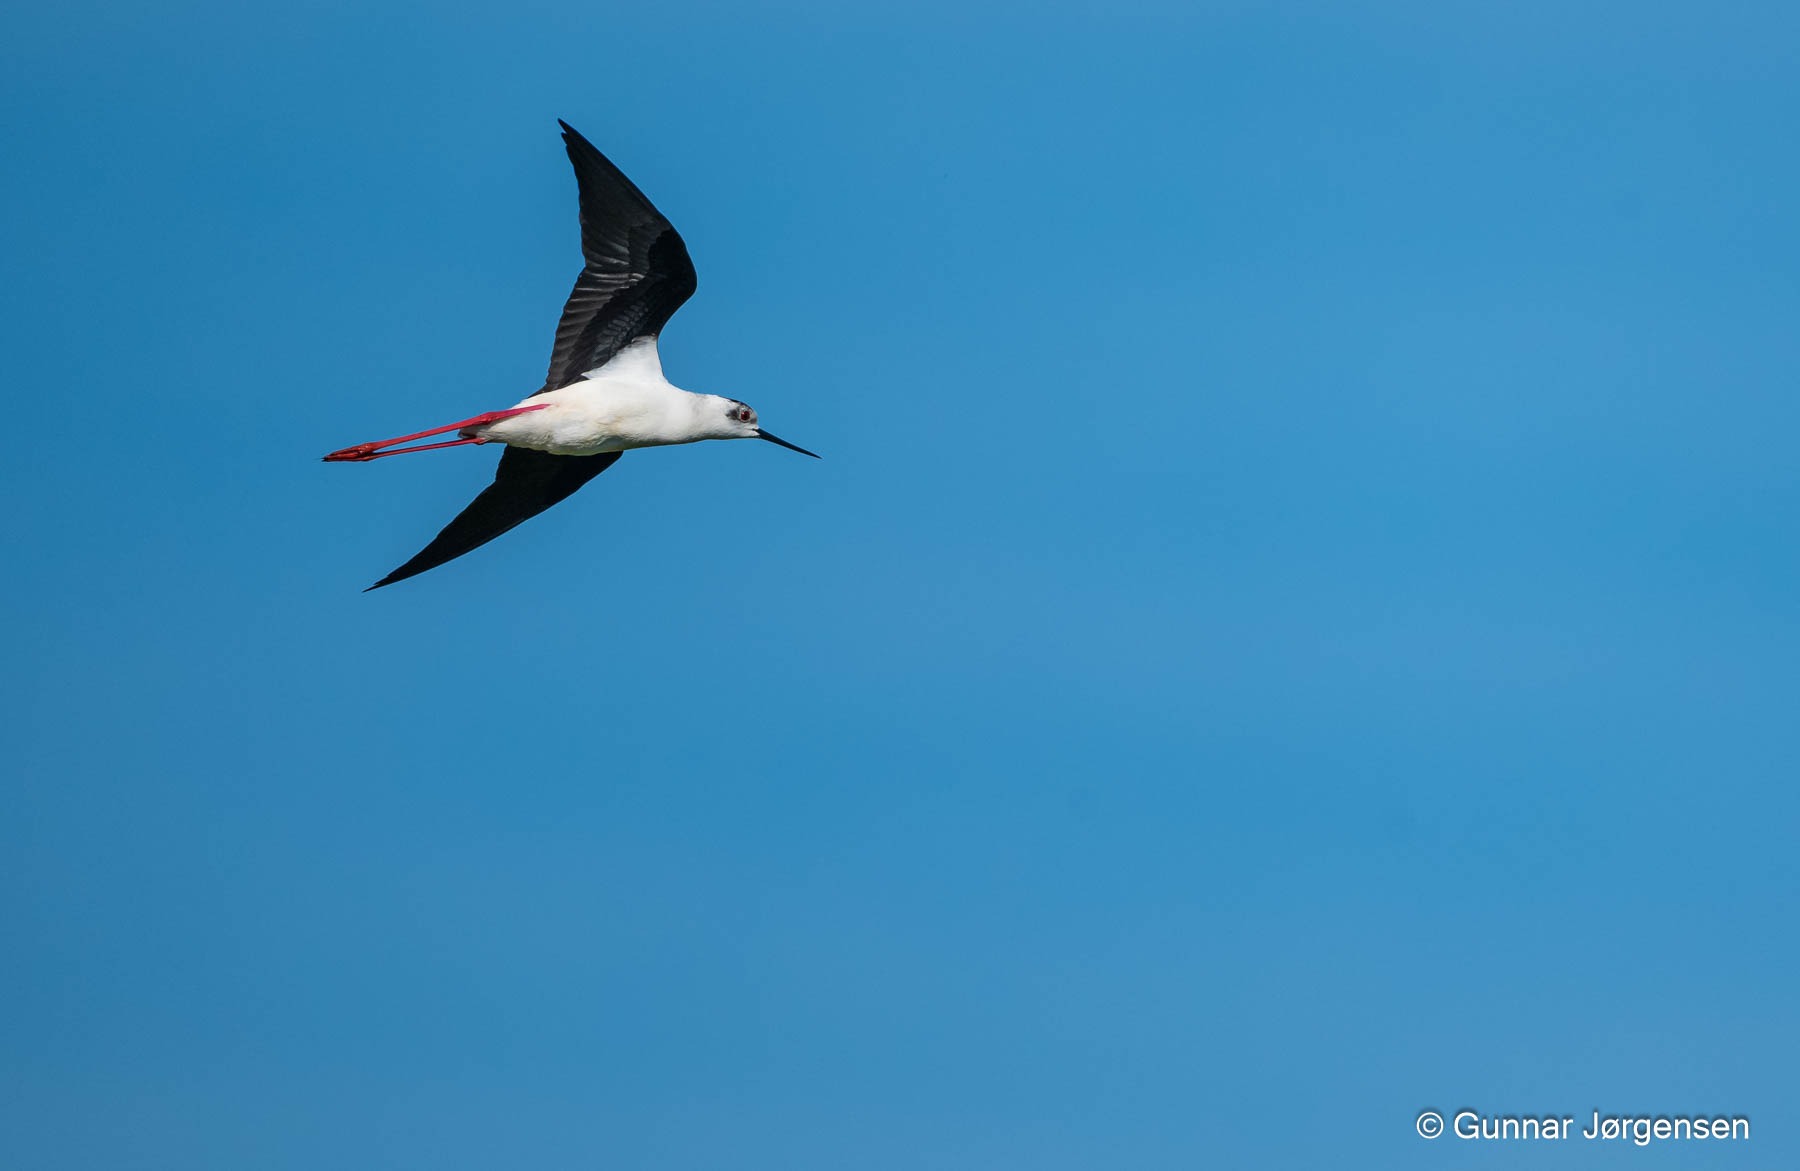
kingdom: Animalia
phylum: Chordata
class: Aves
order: Charadriiformes
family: Recurvirostridae
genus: Himantopus
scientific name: Himantopus himantopus
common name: Stylteløber
